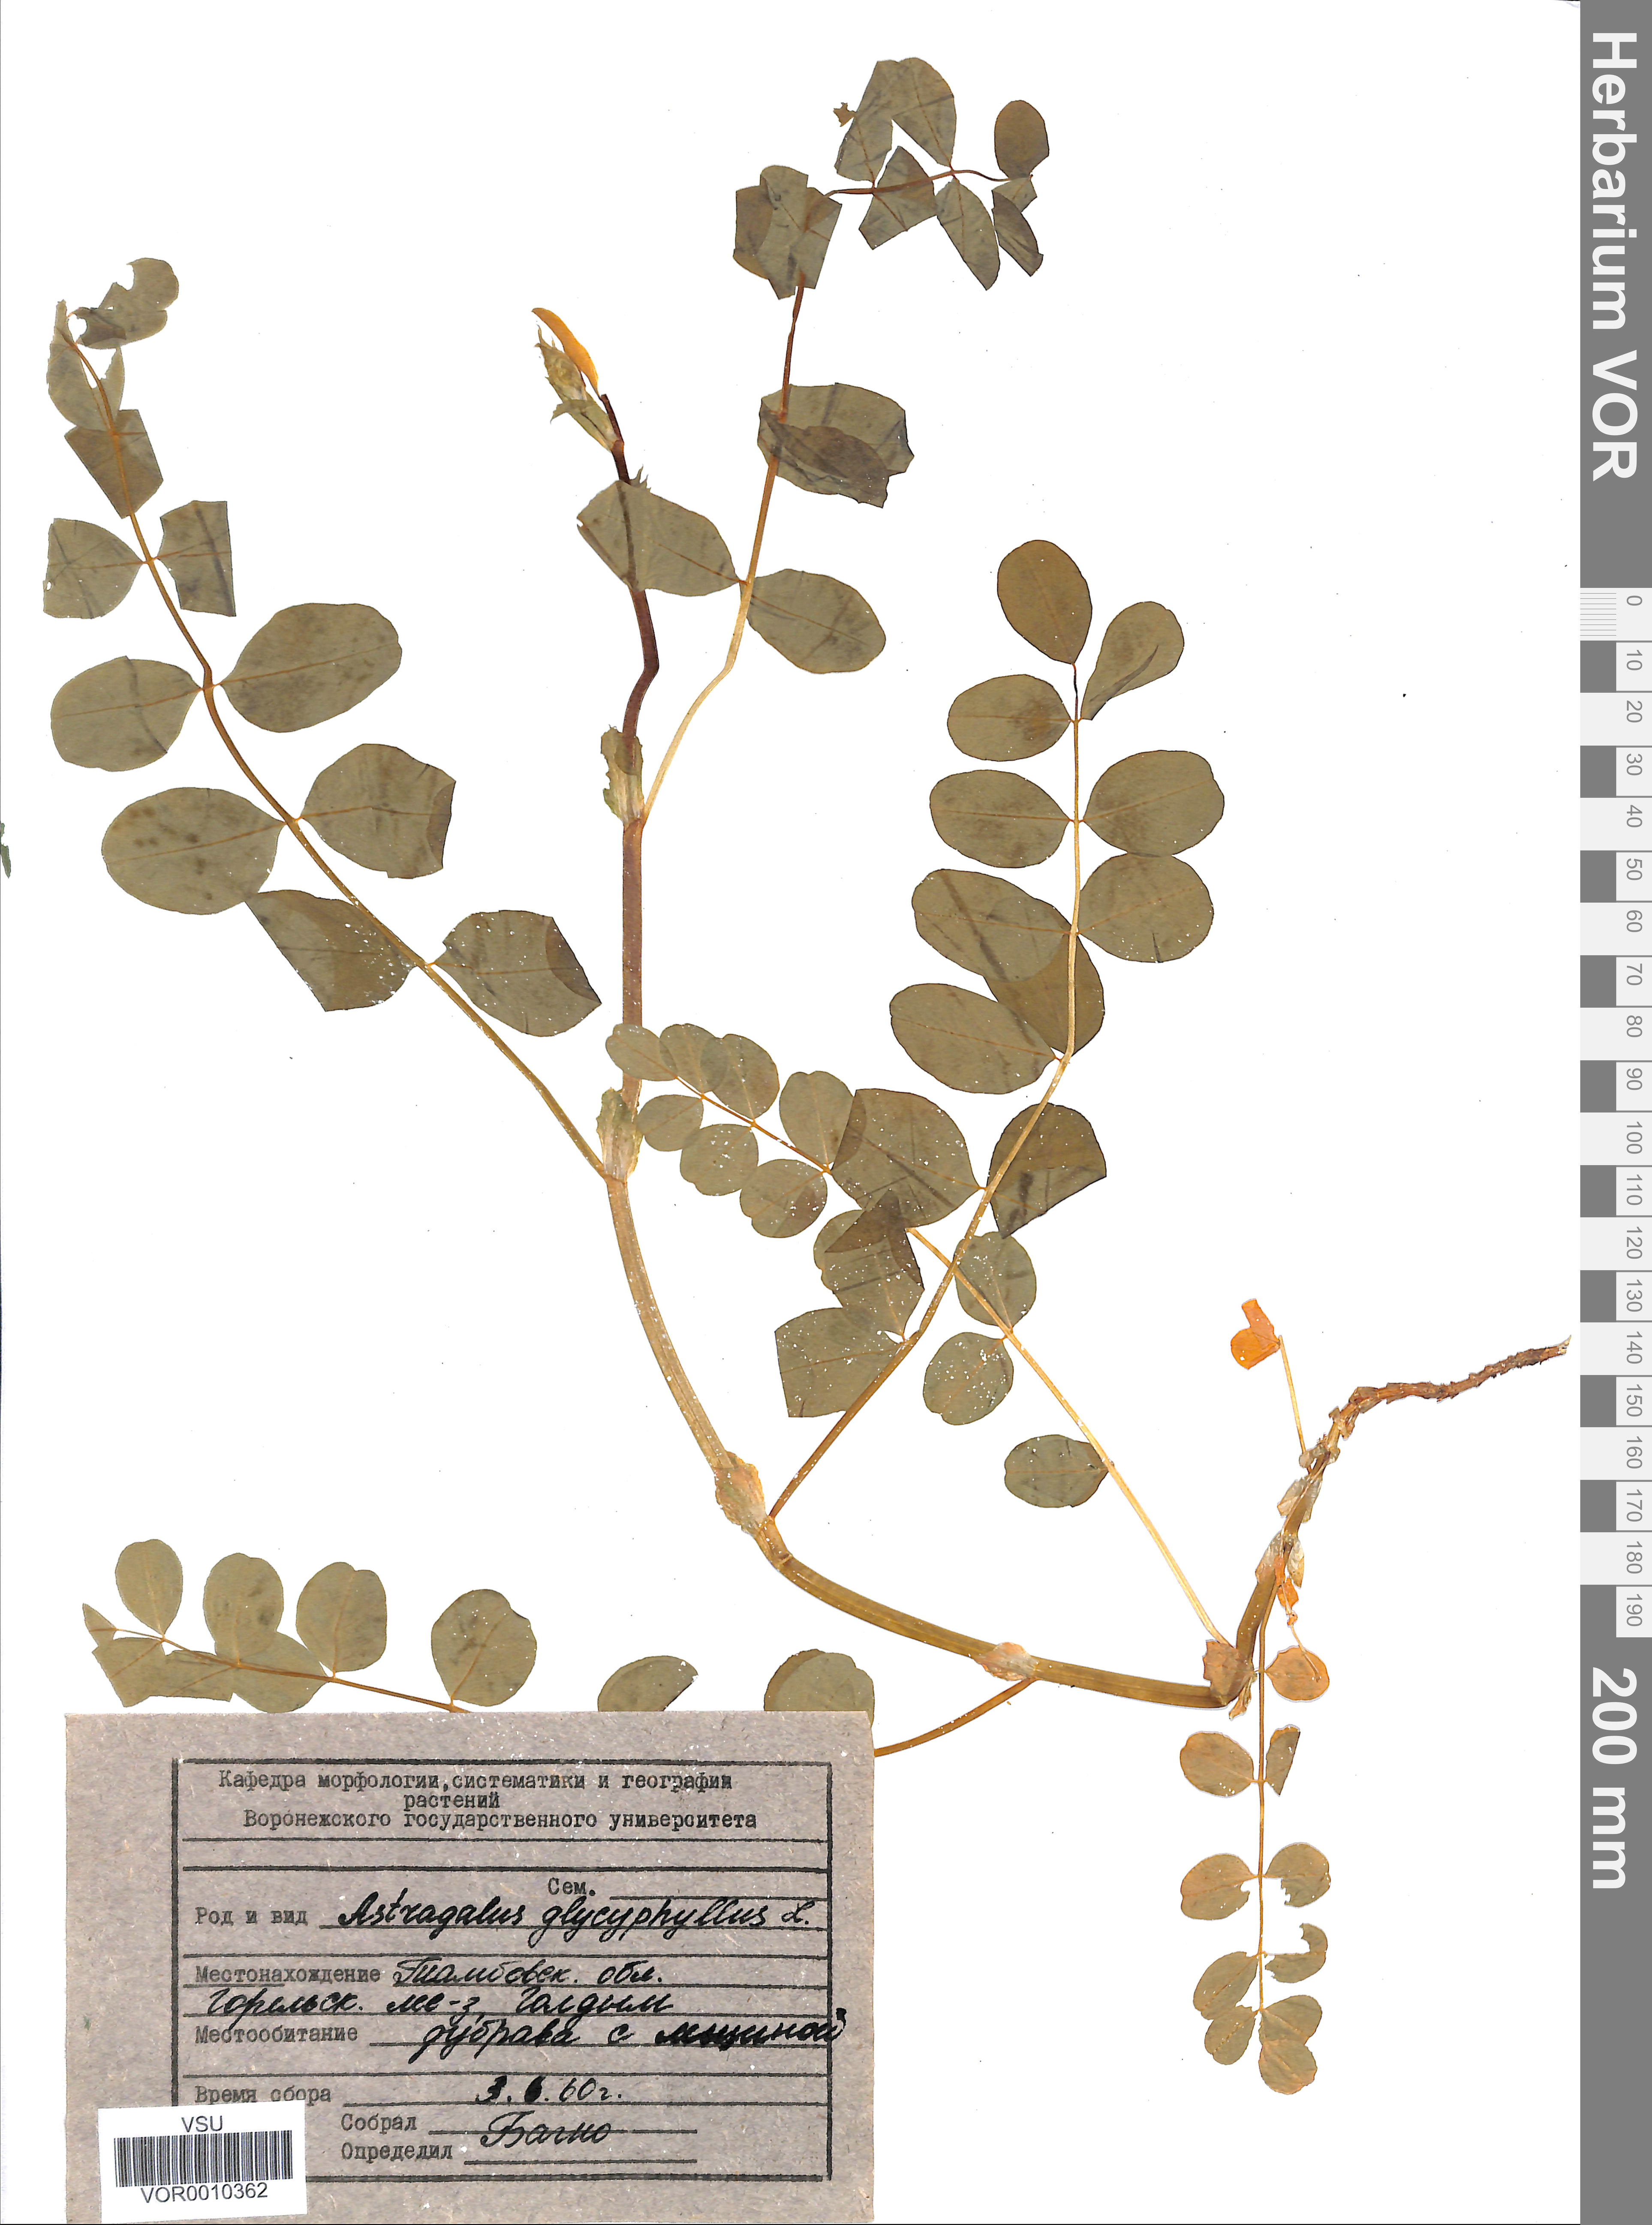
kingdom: Plantae
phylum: Tracheophyta
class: Magnoliopsida
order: Fabales
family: Fabaceae
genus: Astragalus
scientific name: Astragalus glycyphyllos
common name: Wild liquorice
